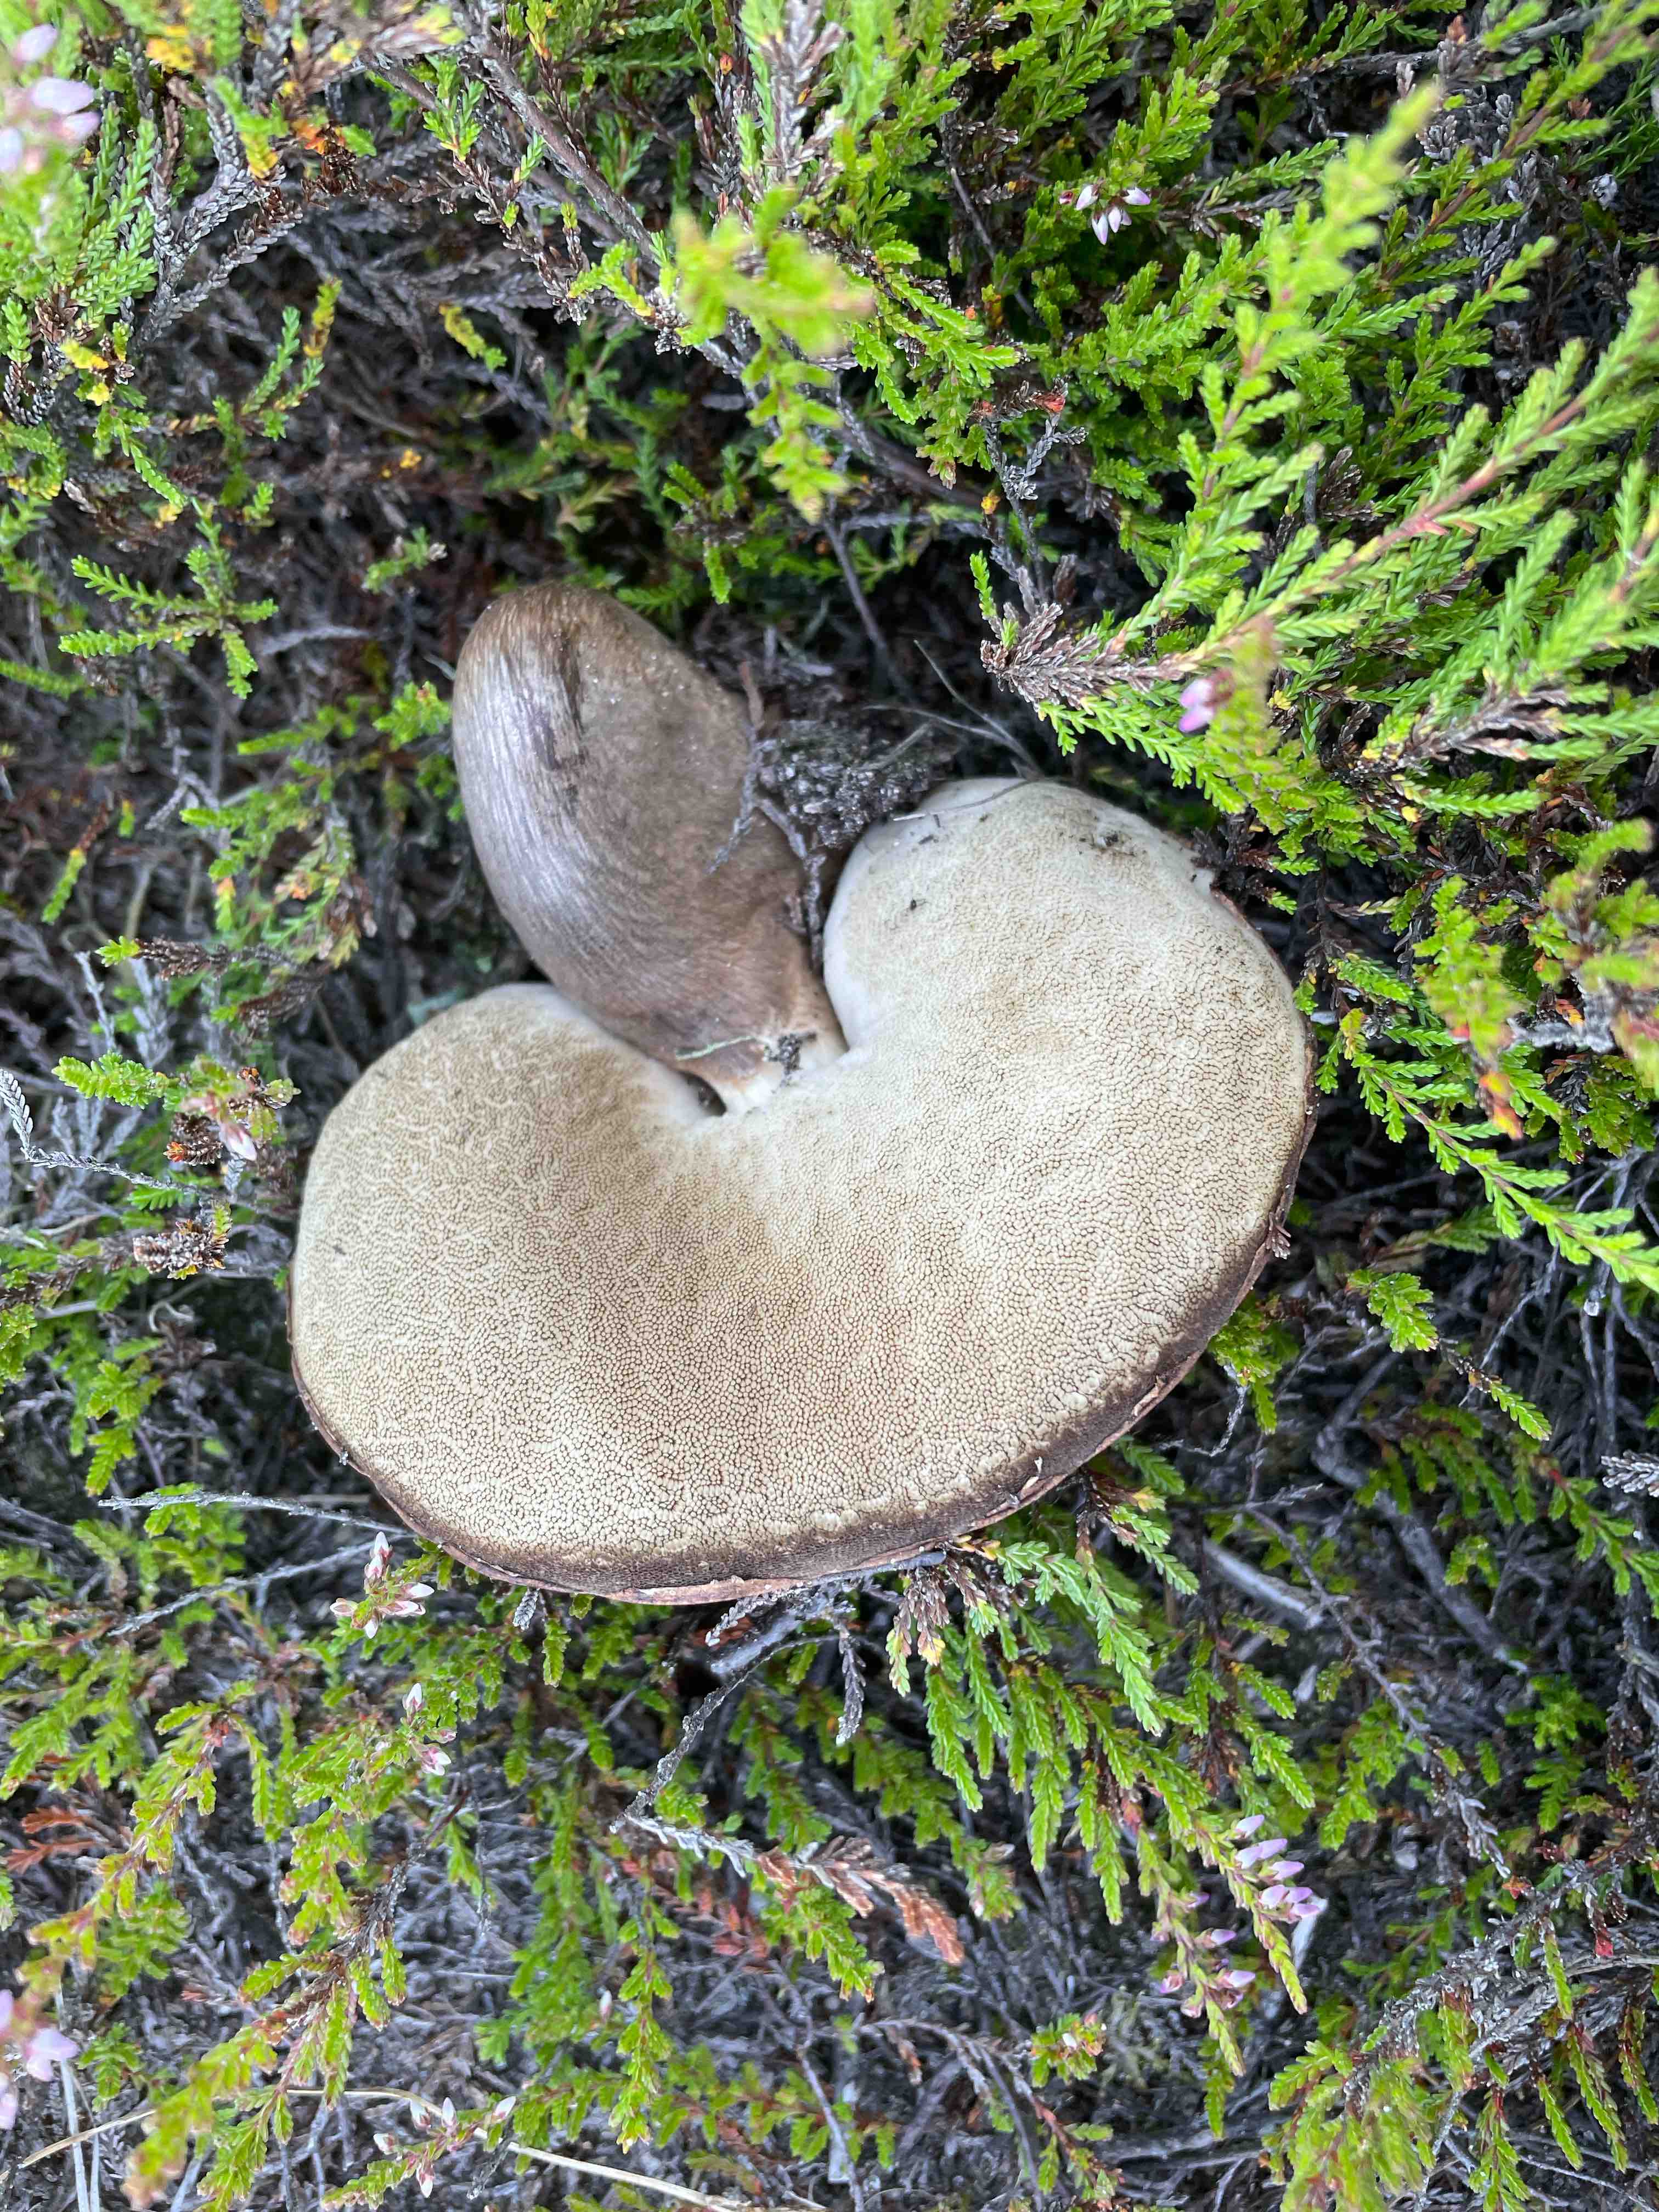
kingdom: Fungi
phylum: Basidiomycota
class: Agaricomycetes
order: Boletales
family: Boletaceae
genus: Leccinum
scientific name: Leccinum vulpinum
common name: fyrre-skælrørhat
